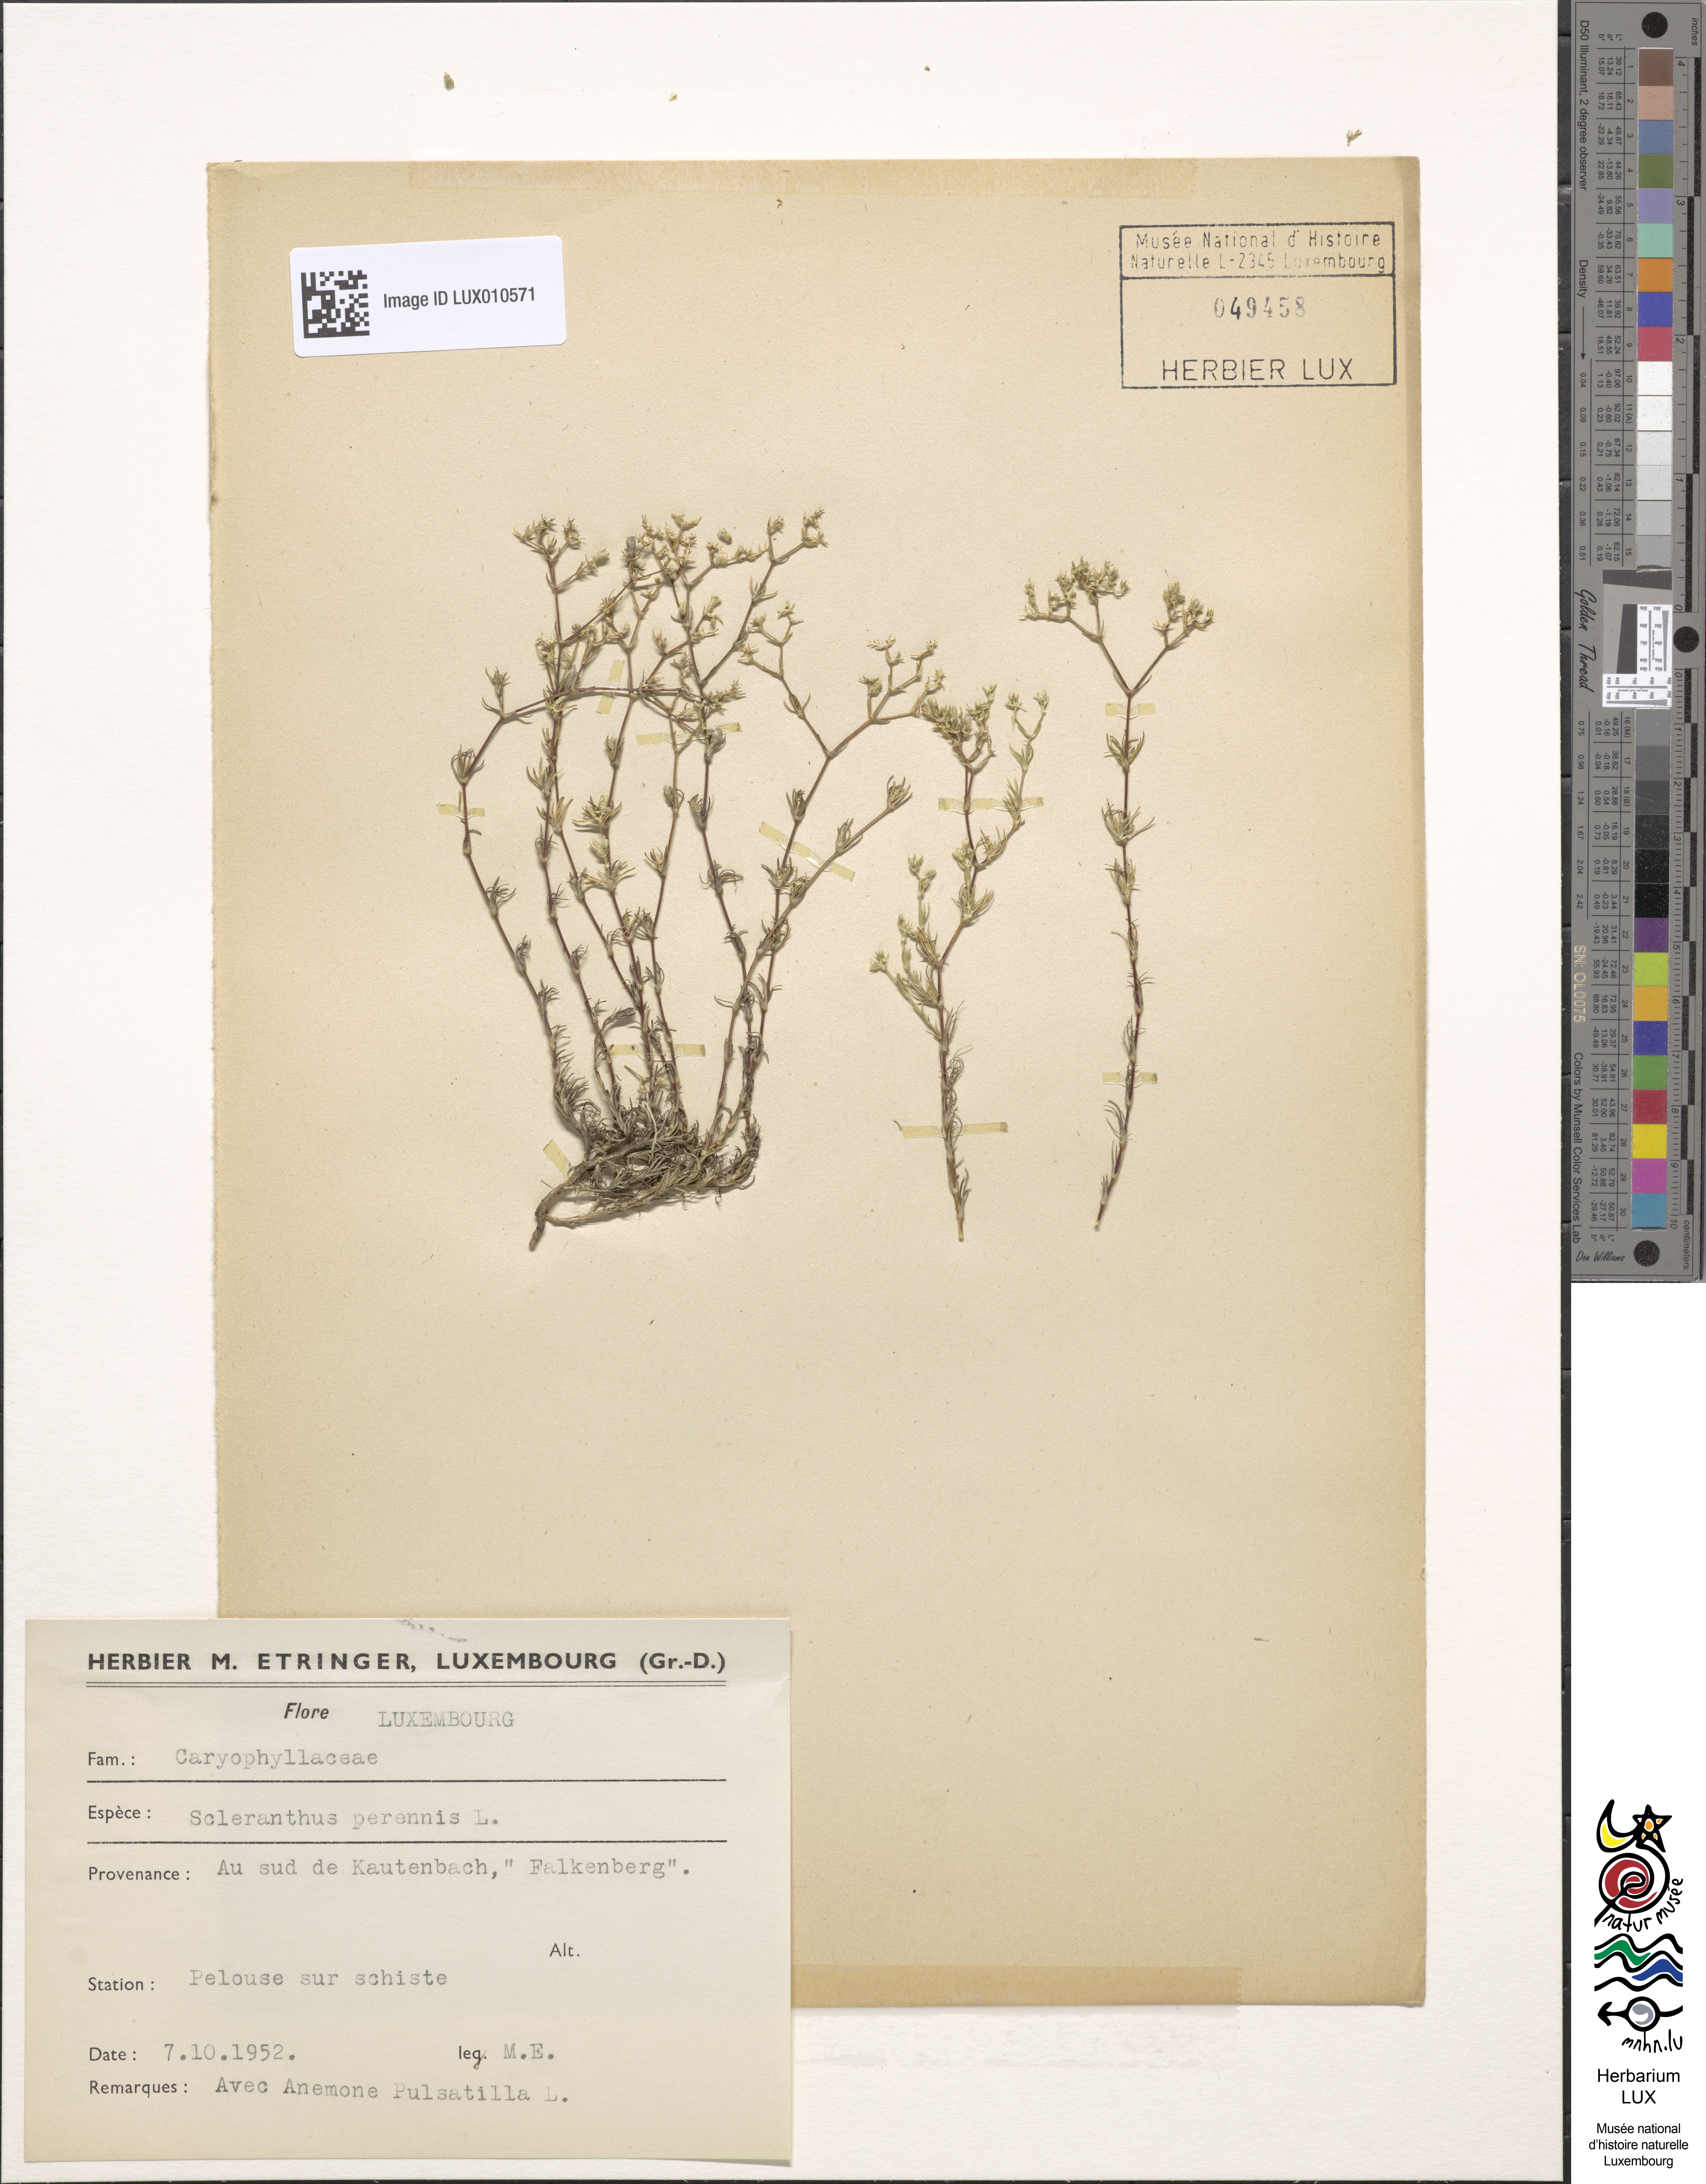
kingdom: Plantae
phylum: Tracheophyta
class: Magnoliopsida
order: Caryophyllales
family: Caryophyllaceae
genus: Scleranthus
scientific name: Scleranthus perennis
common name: Perennial knawel
